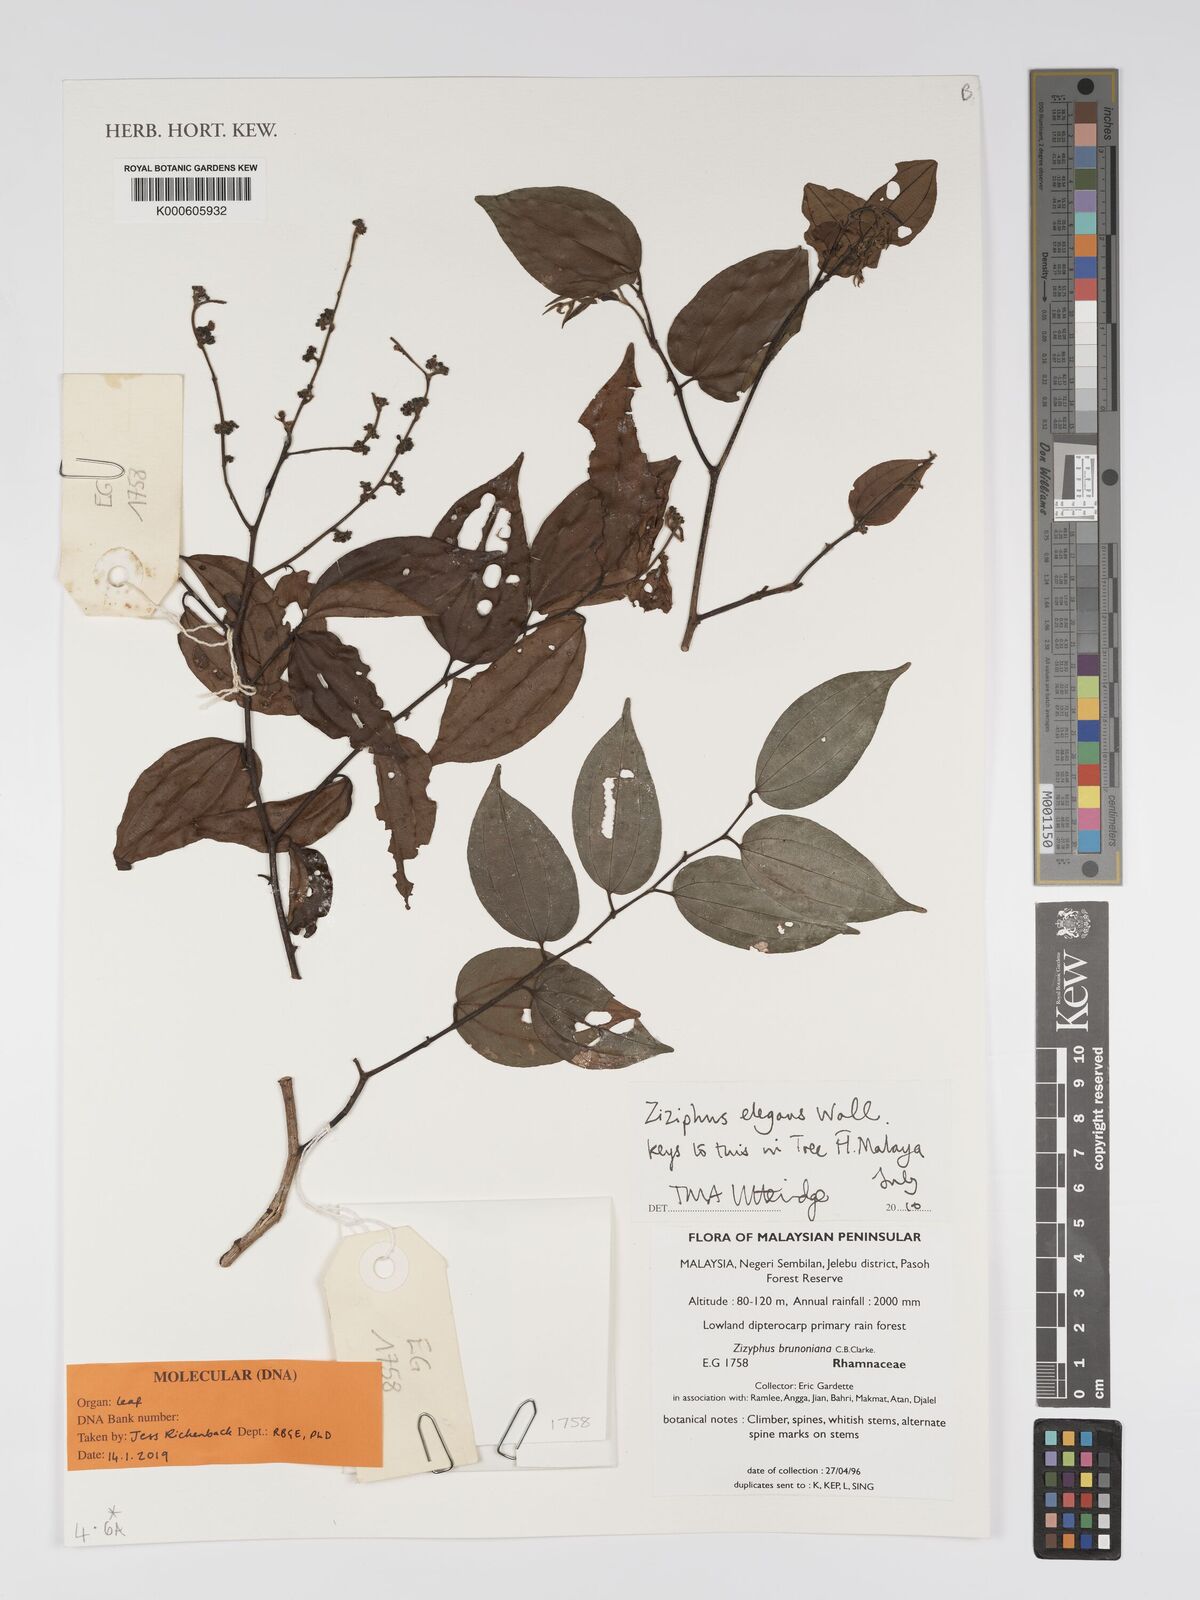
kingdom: Plantae
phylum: Tracheophyta
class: Magnoliopsida
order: Rosales
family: Rhamnaceae
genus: Ziziphus
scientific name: Ziziphus elegans
